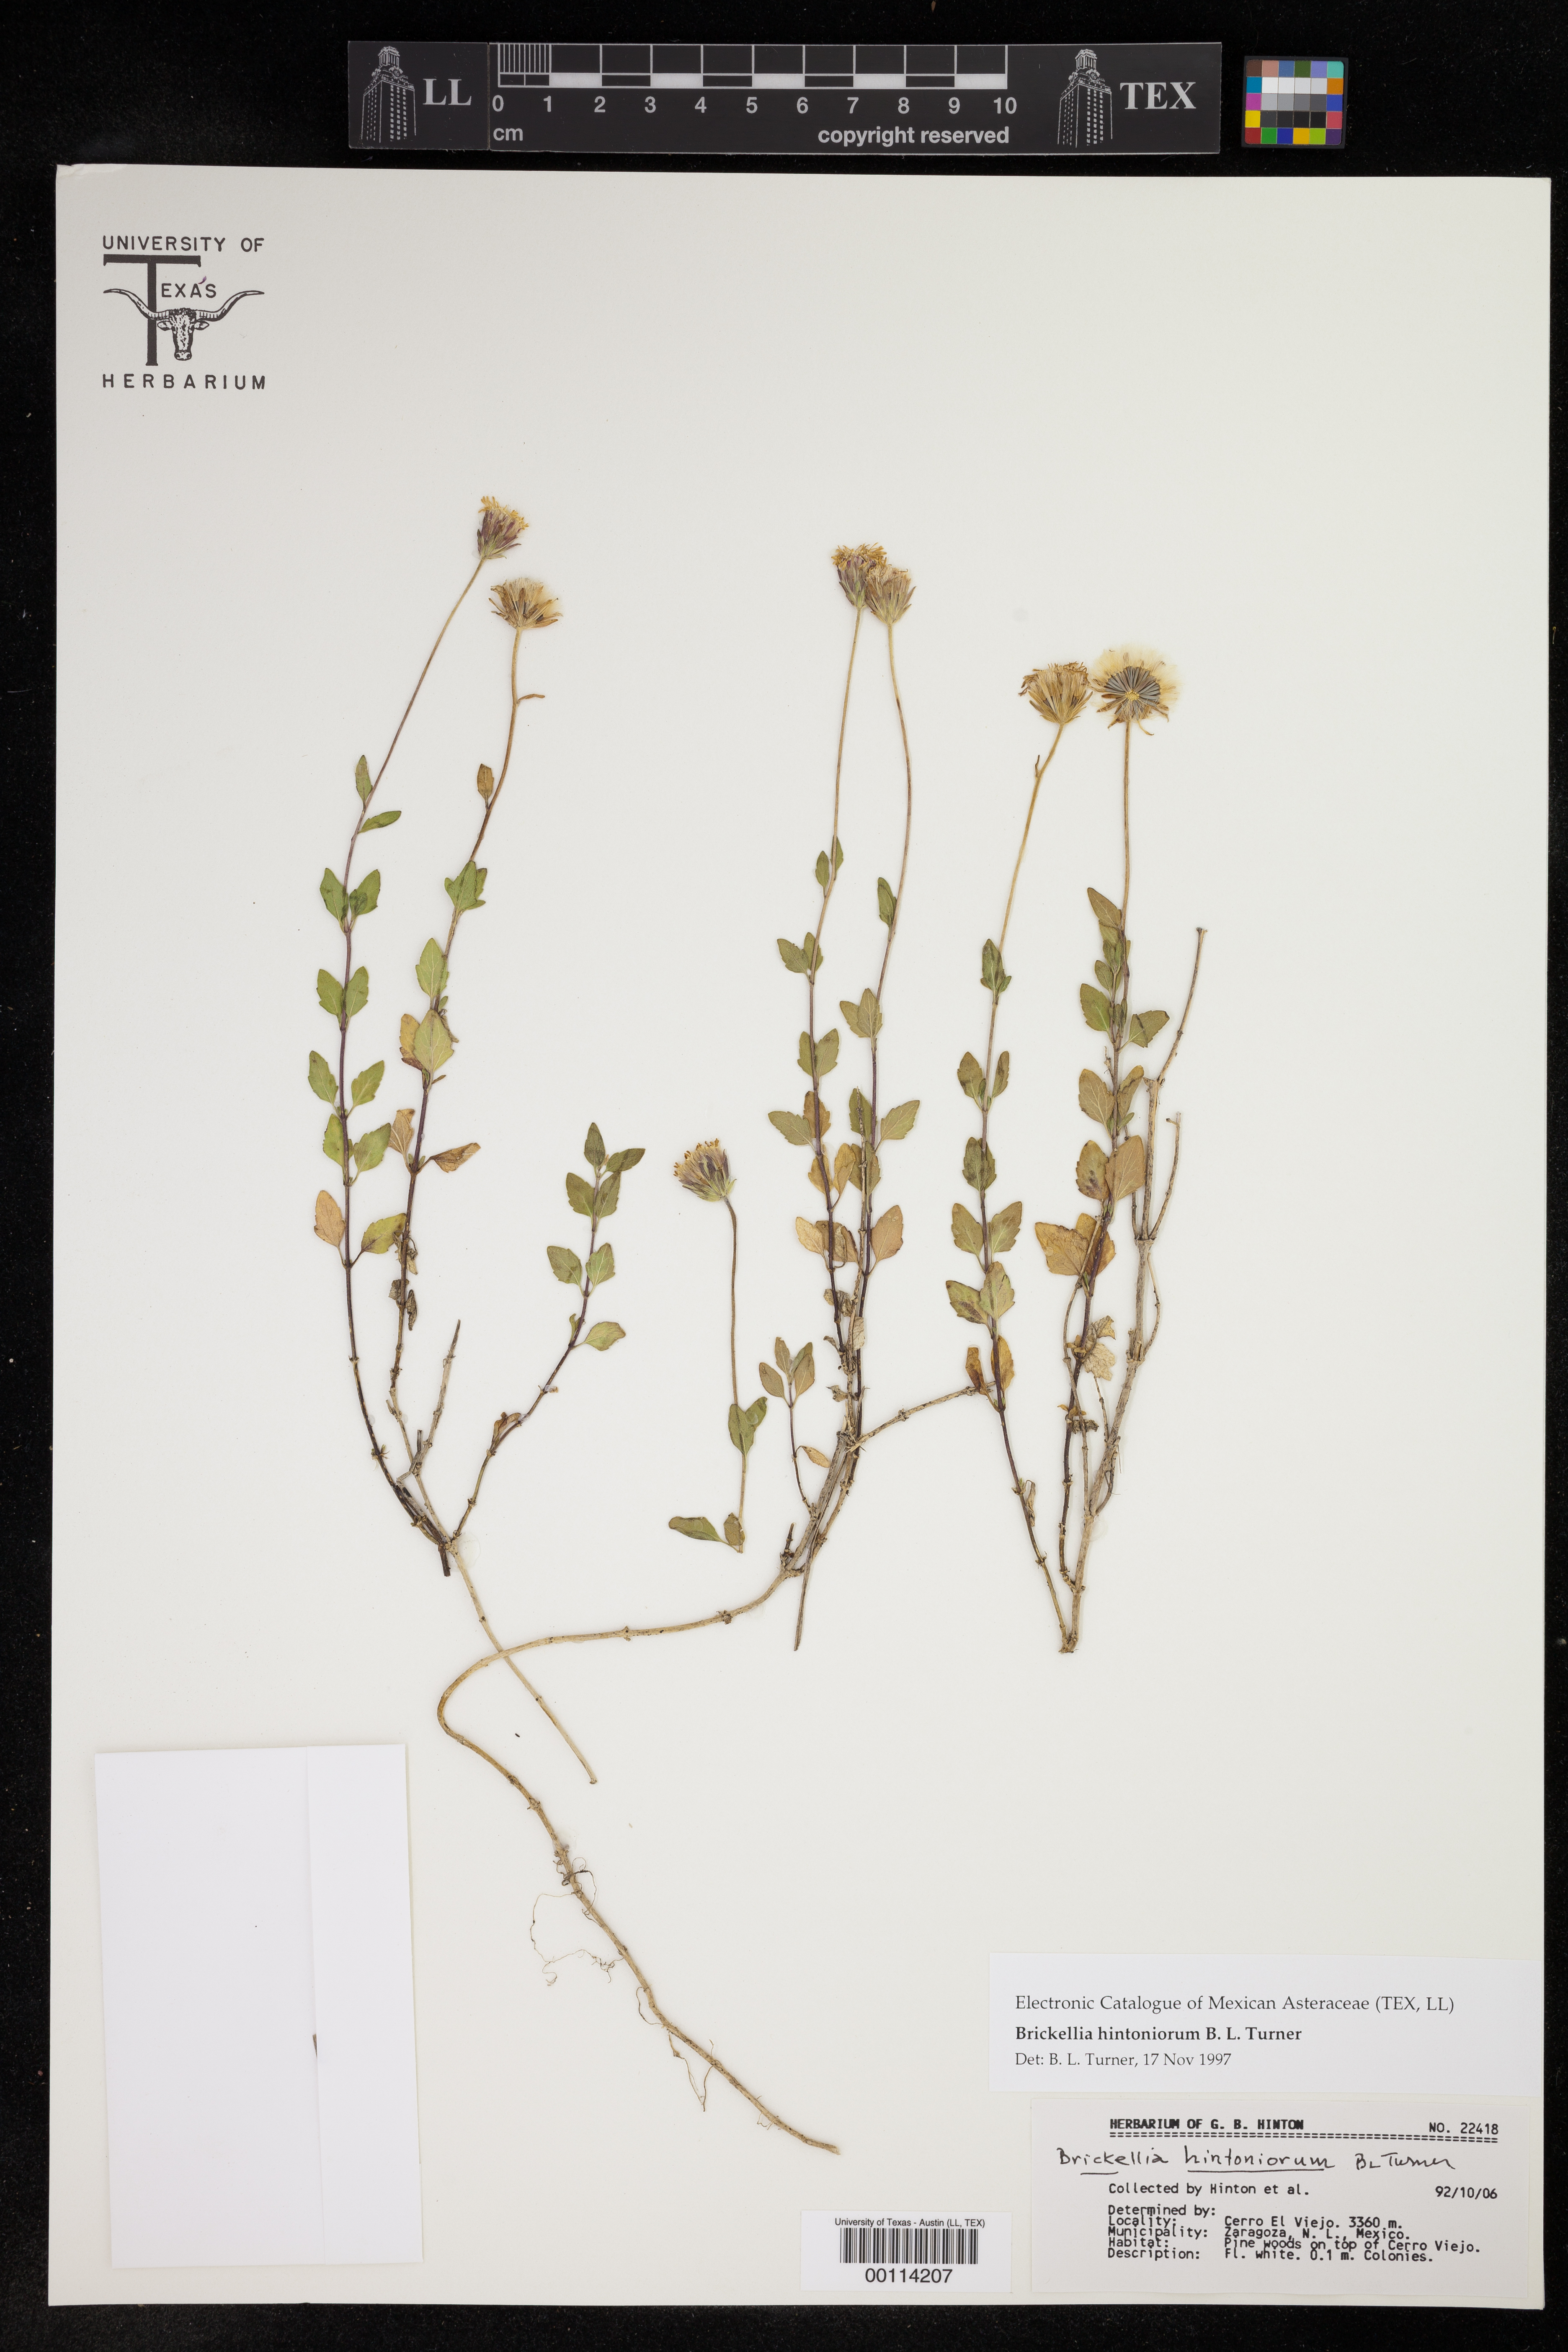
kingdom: Plantae
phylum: Tracheophyta
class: Magnoliopsida
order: Asterales
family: Asteraceae
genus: Brickellia
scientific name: Brickellia hintoniorum
